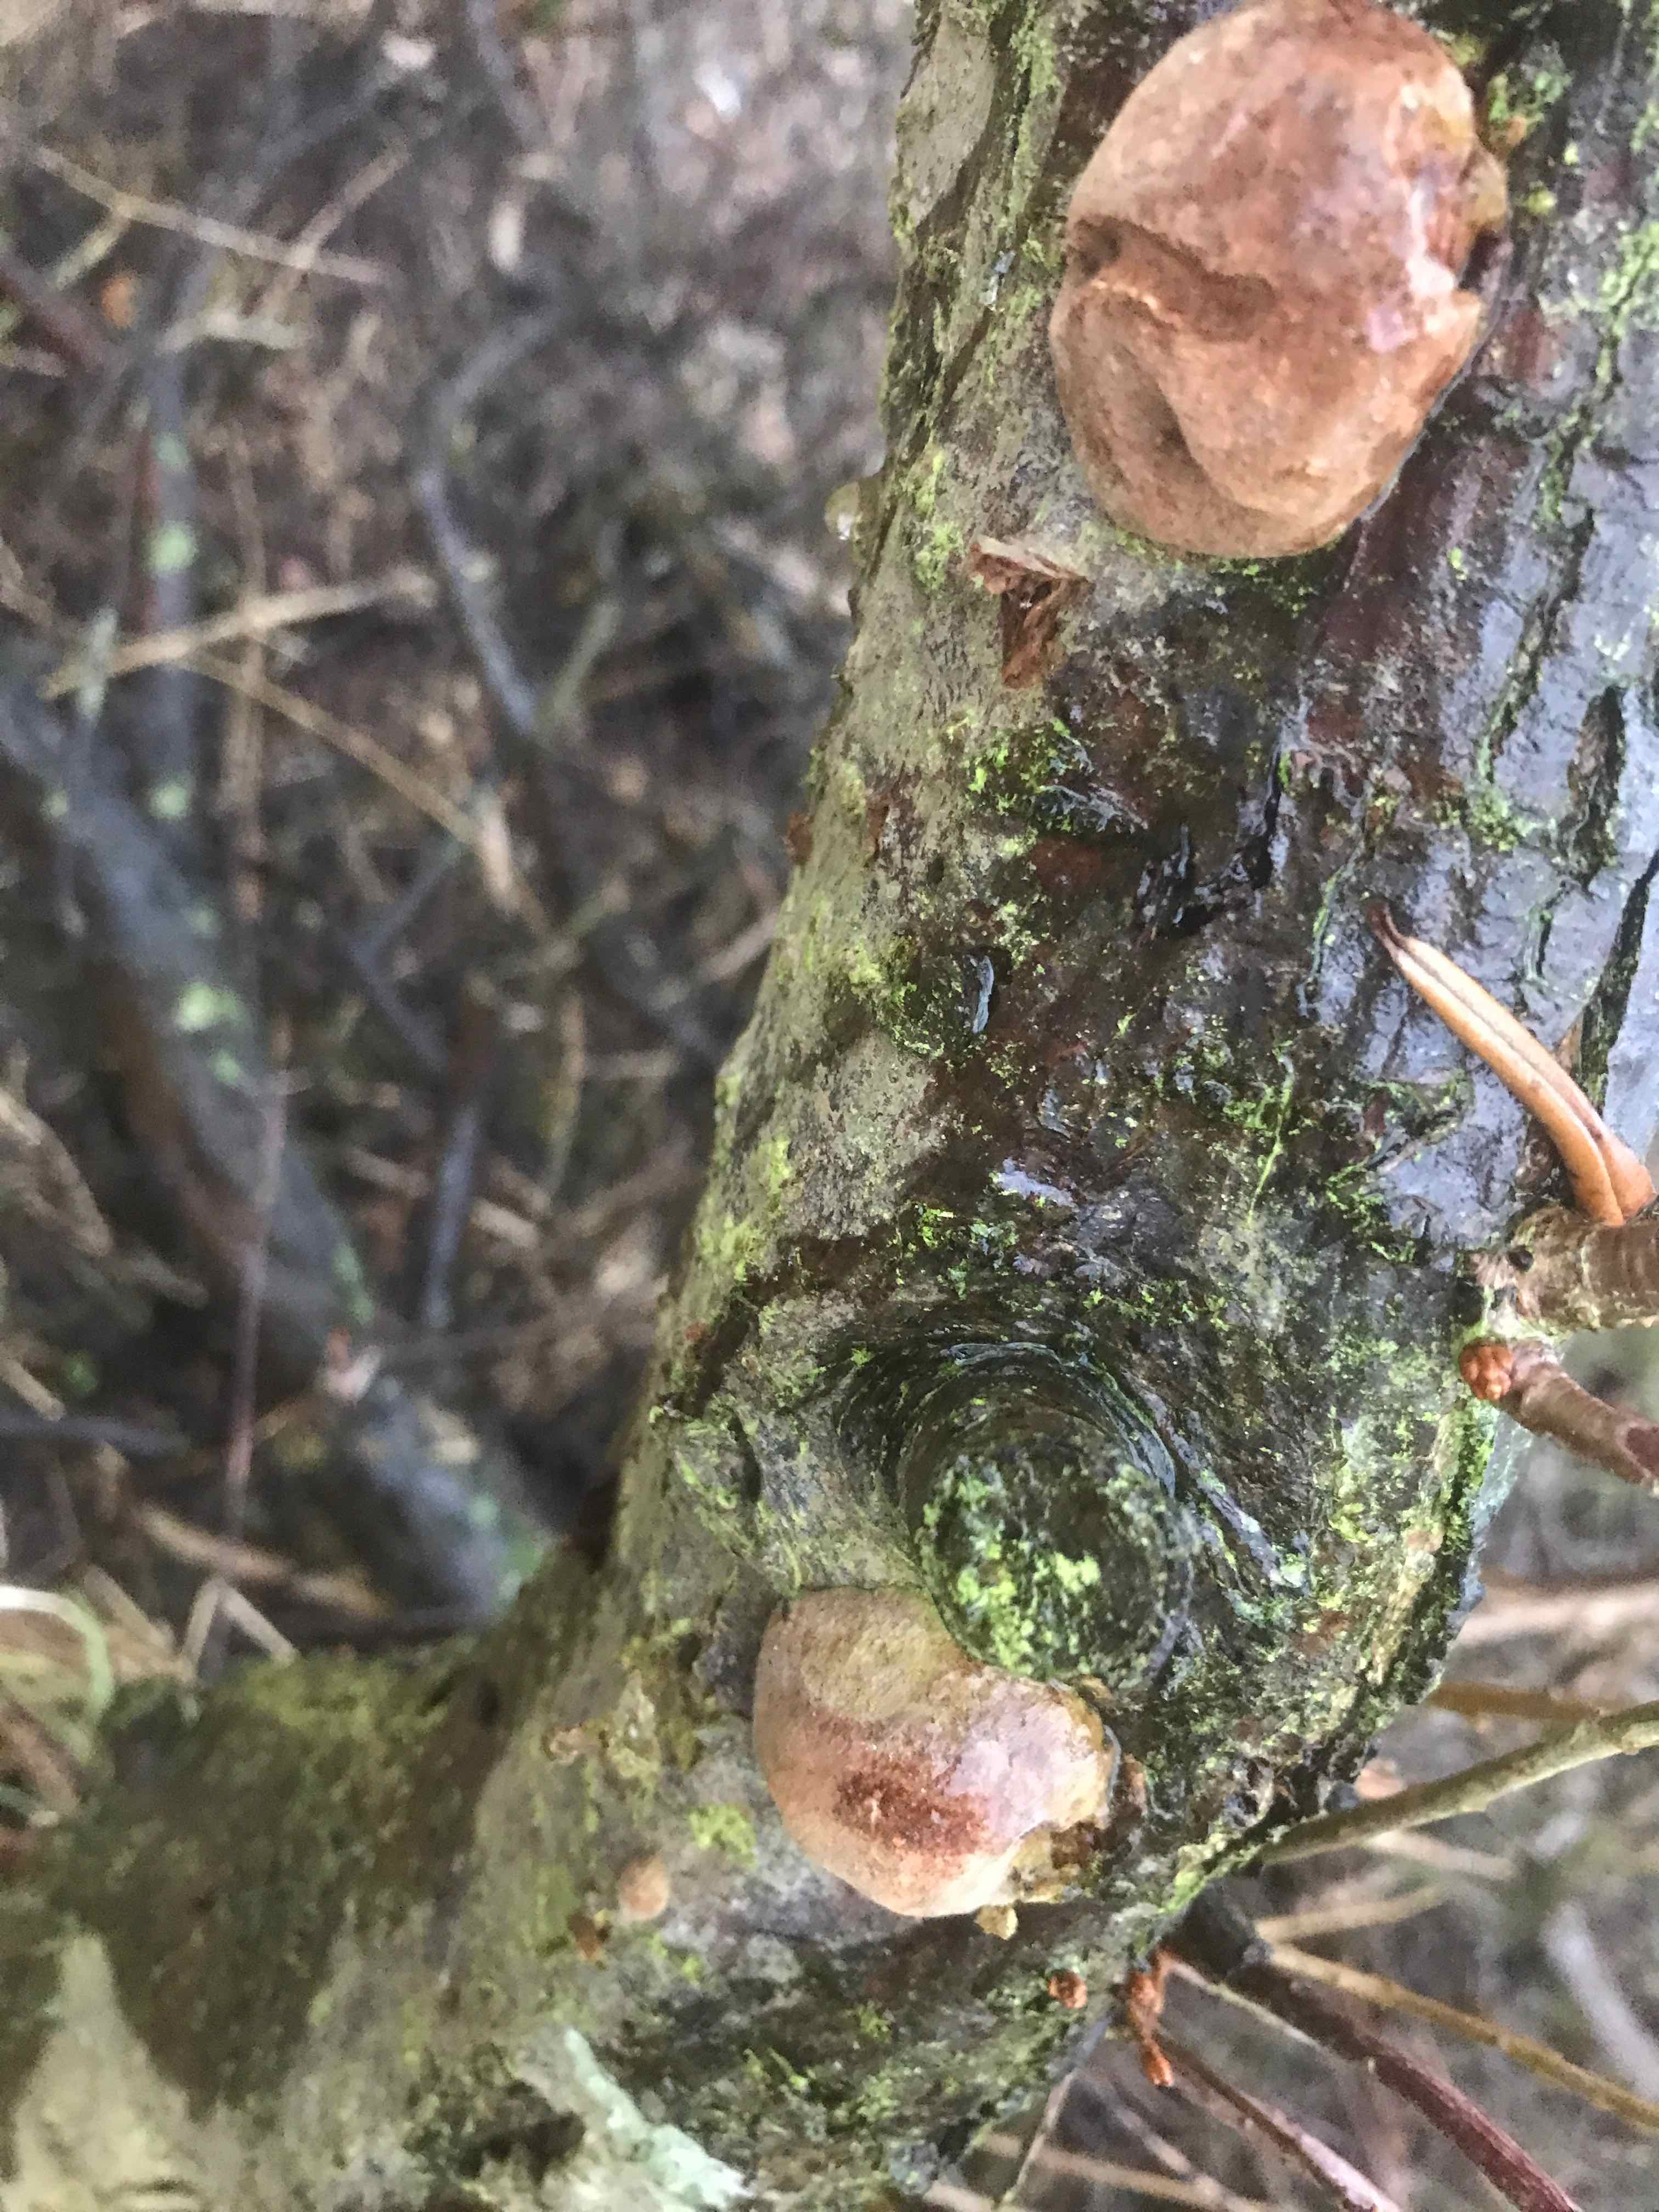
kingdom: Fungi
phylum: Basidiomycota
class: Agaricomycetes
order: Hymenochaetales
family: Hymenochaetaceae
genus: Fomitiporia
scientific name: Fomitiporia hippophaeicola
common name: havtorn-ildporesvamp
